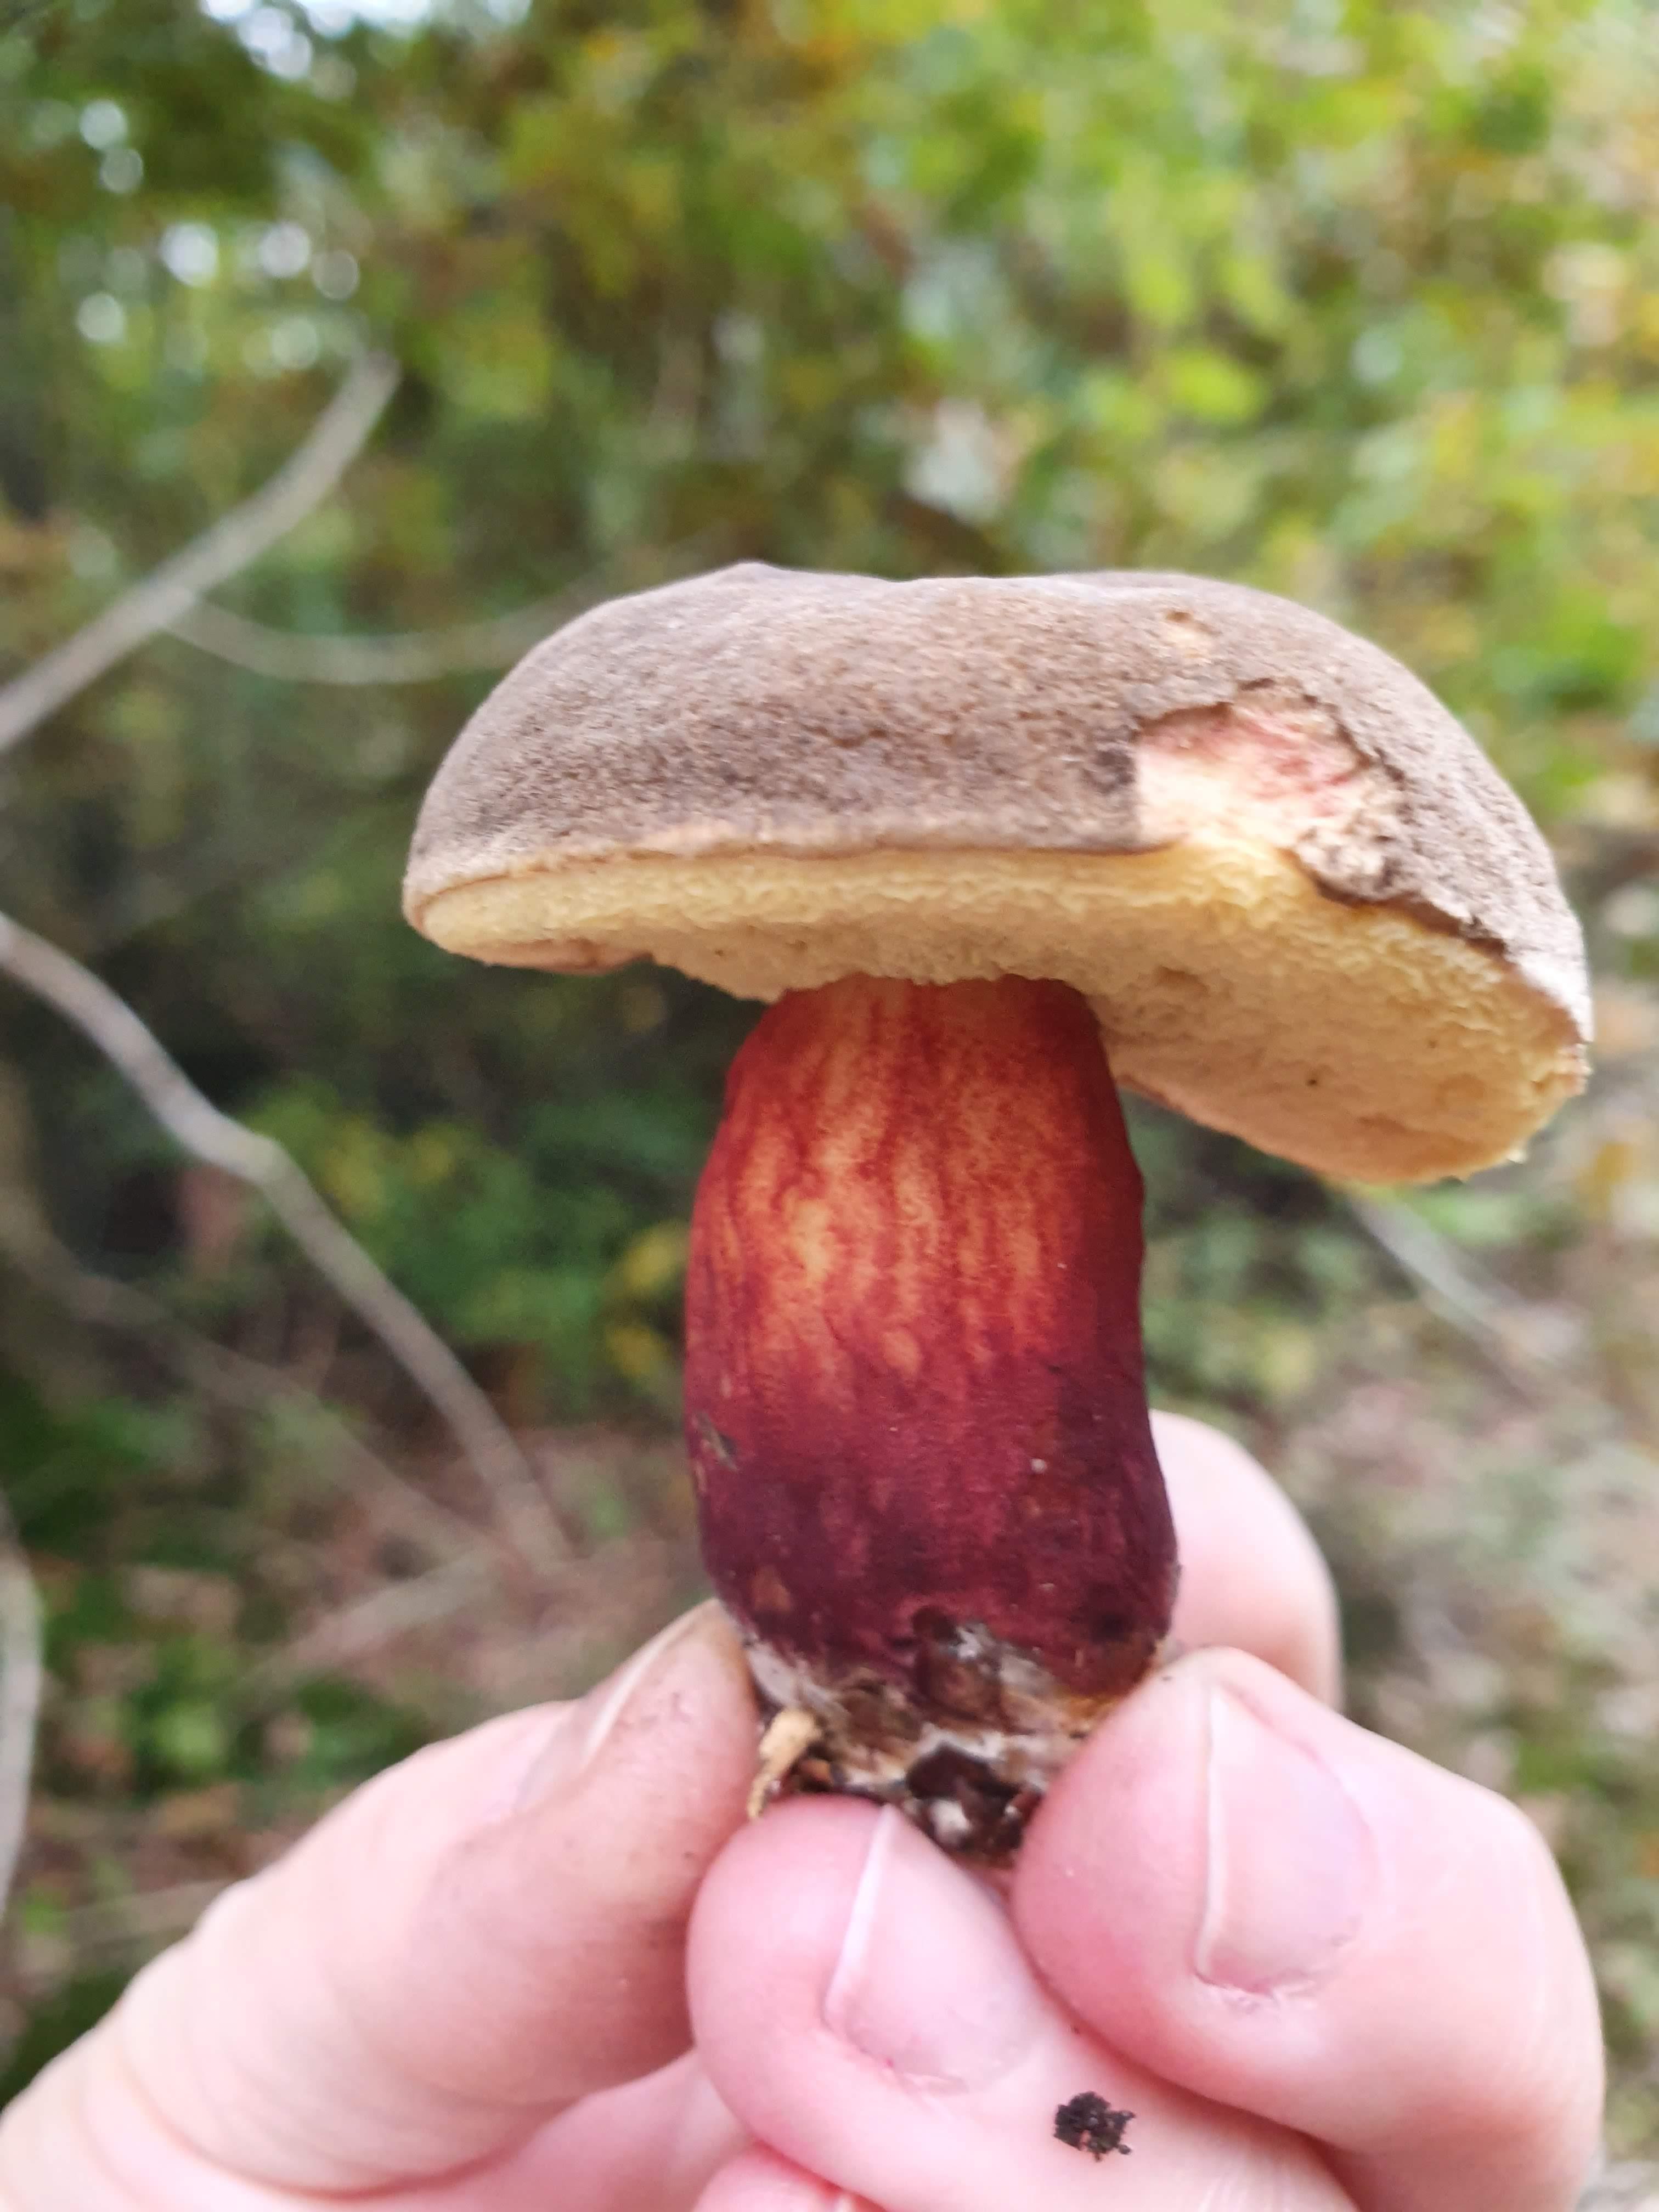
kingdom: Fungi
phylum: Basidiomycota
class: Agaricomycetes
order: Boletales
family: Boletaceae
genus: Xerocomellus
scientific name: Xerocomellus pruinatus
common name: dugget rørhat
